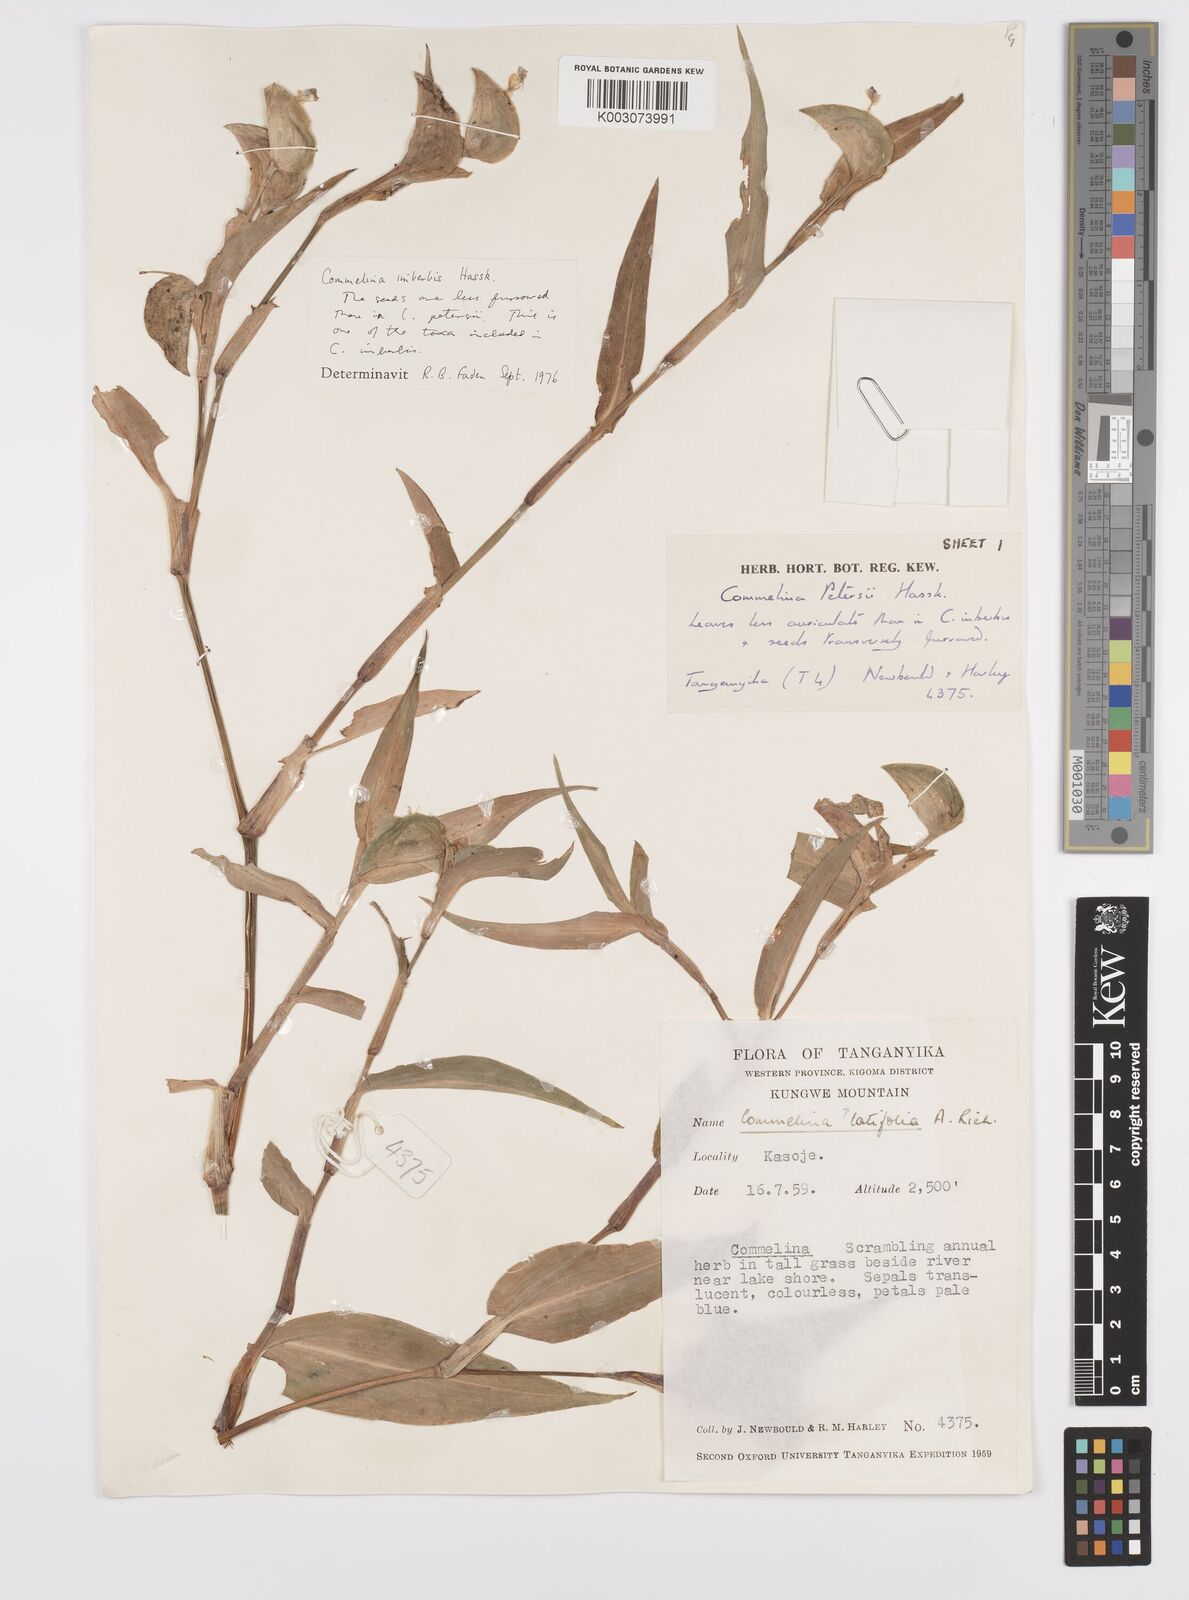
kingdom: Plantae
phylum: Tracheophyta
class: Liliopsida
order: Commelinales
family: Commelinaceae
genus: Commelina
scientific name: Commelina imberbis
